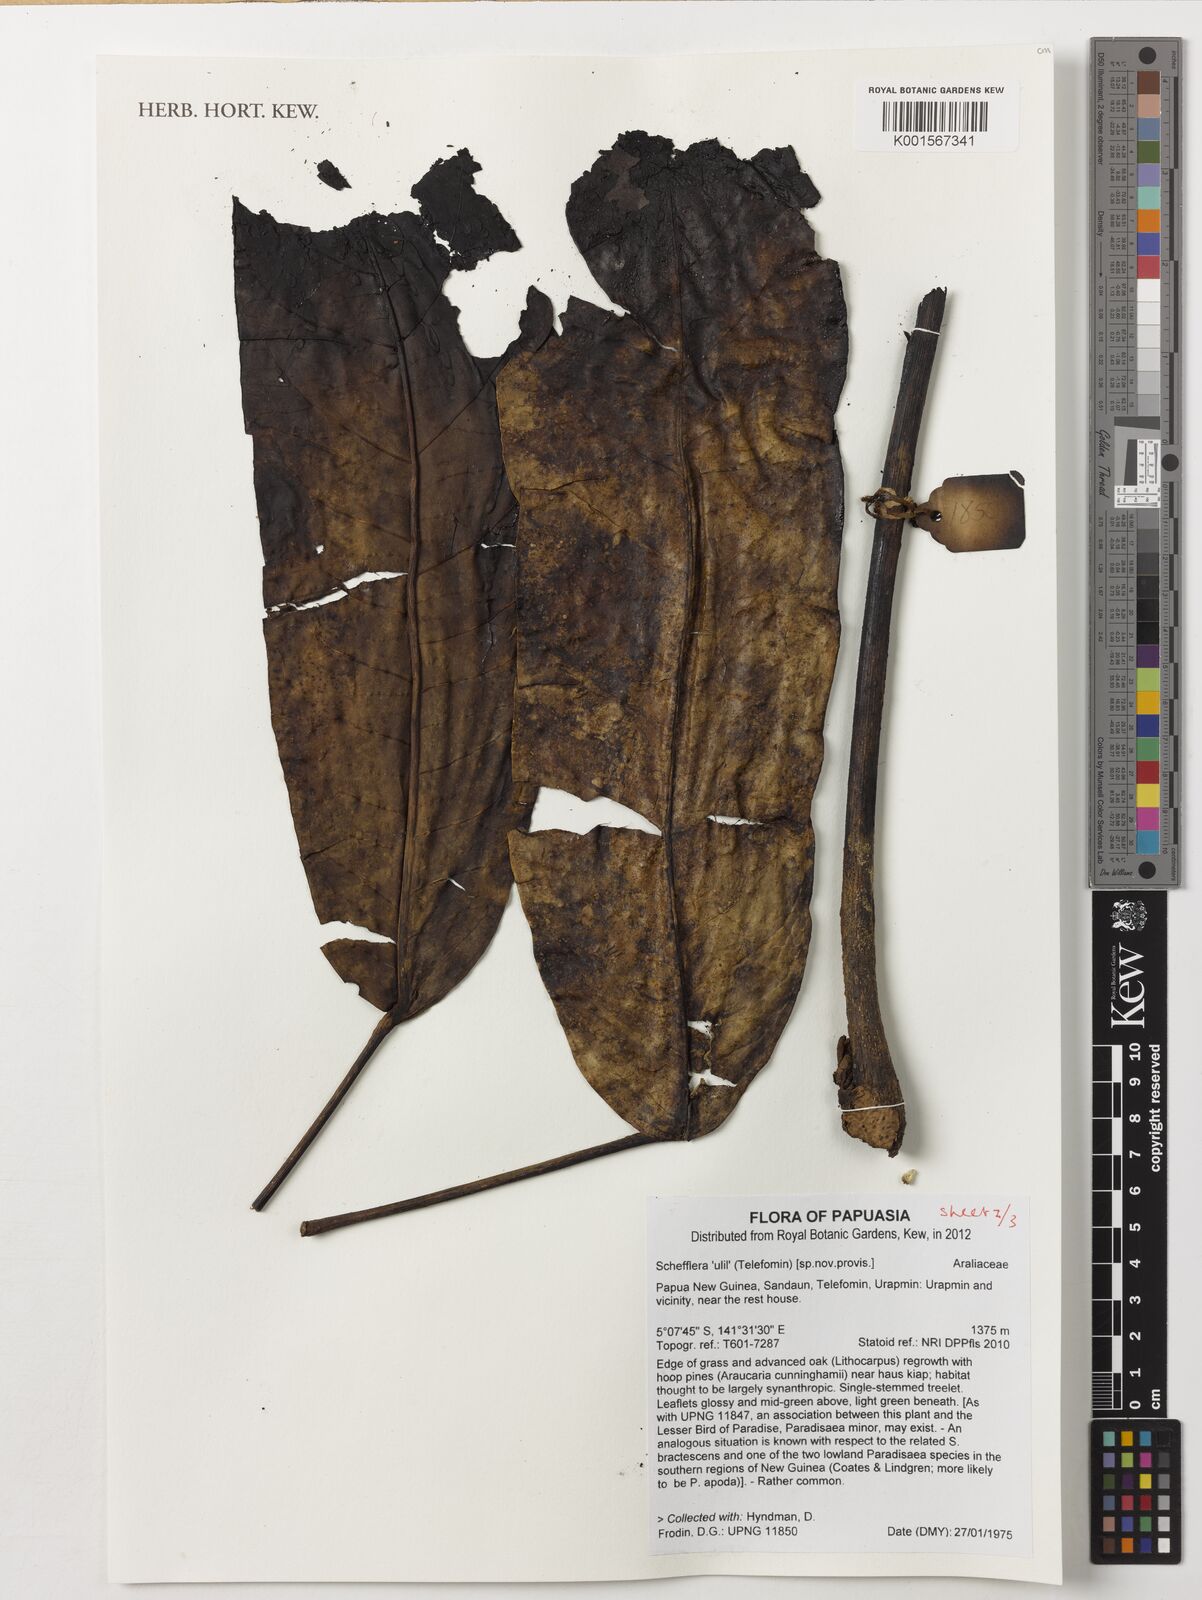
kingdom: Plantae
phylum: Tracheophyta
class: Magnoliopsida
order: Apiales
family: Araliaceae
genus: Schefflera
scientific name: Schefflera
